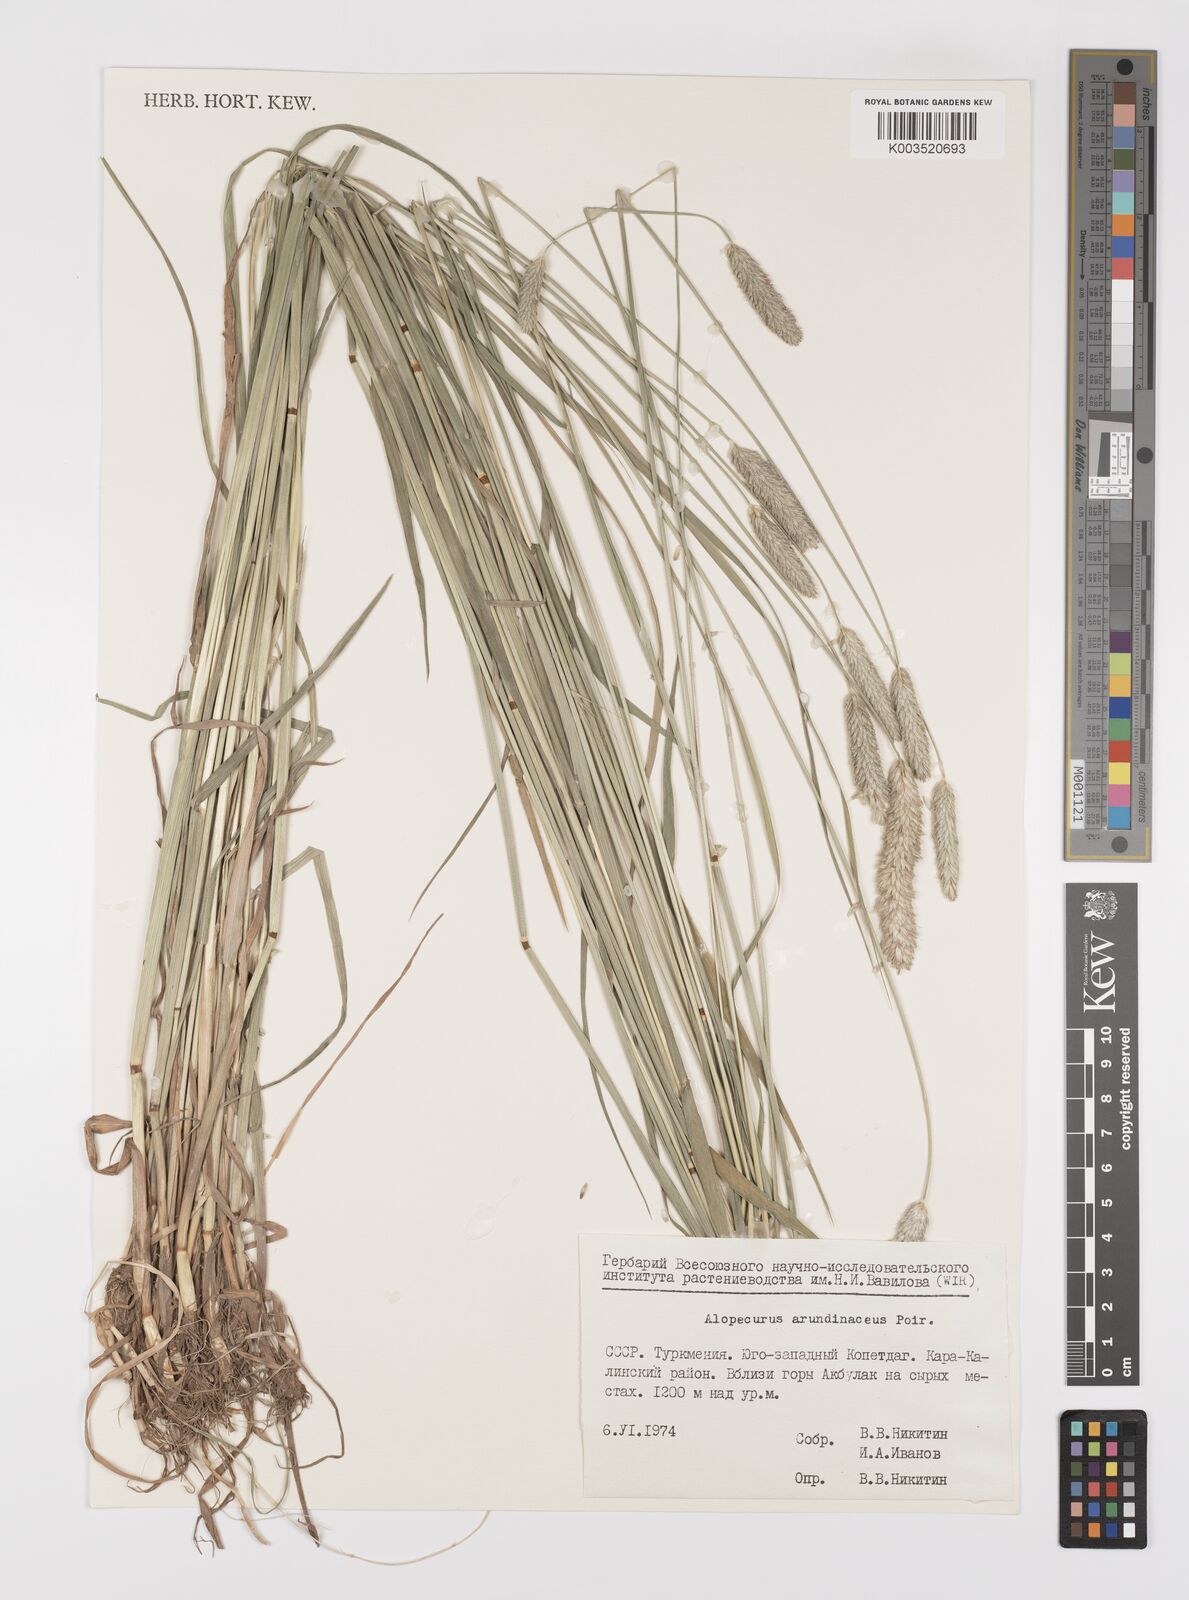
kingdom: Plantae
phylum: Tracheophyta
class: Liliopsida
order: Poales
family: Poaceae
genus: Alopecurus
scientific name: Alopecurus arundinaceus
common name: Creeping meadow foxtail
